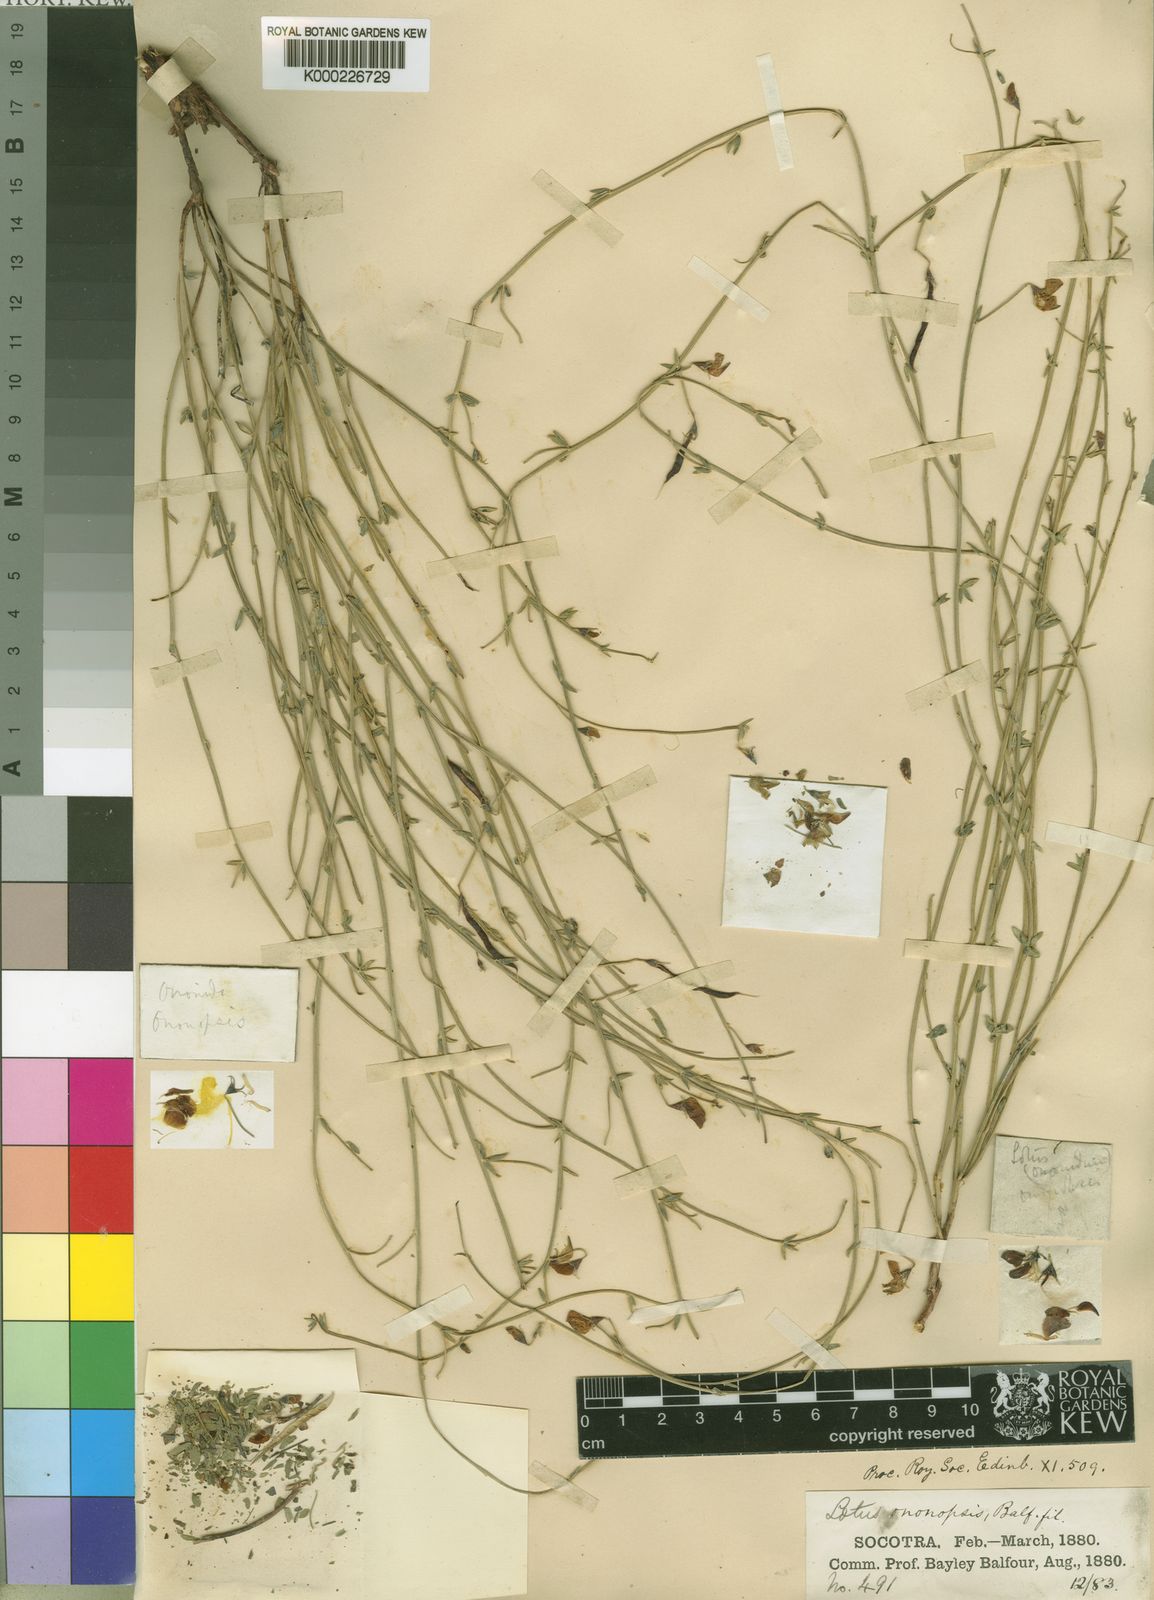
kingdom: Plantae
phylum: Tracheophyta
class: Magnoliopsida
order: Fabales
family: Fabaceae
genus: Lotus
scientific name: Lotus ononopsis
